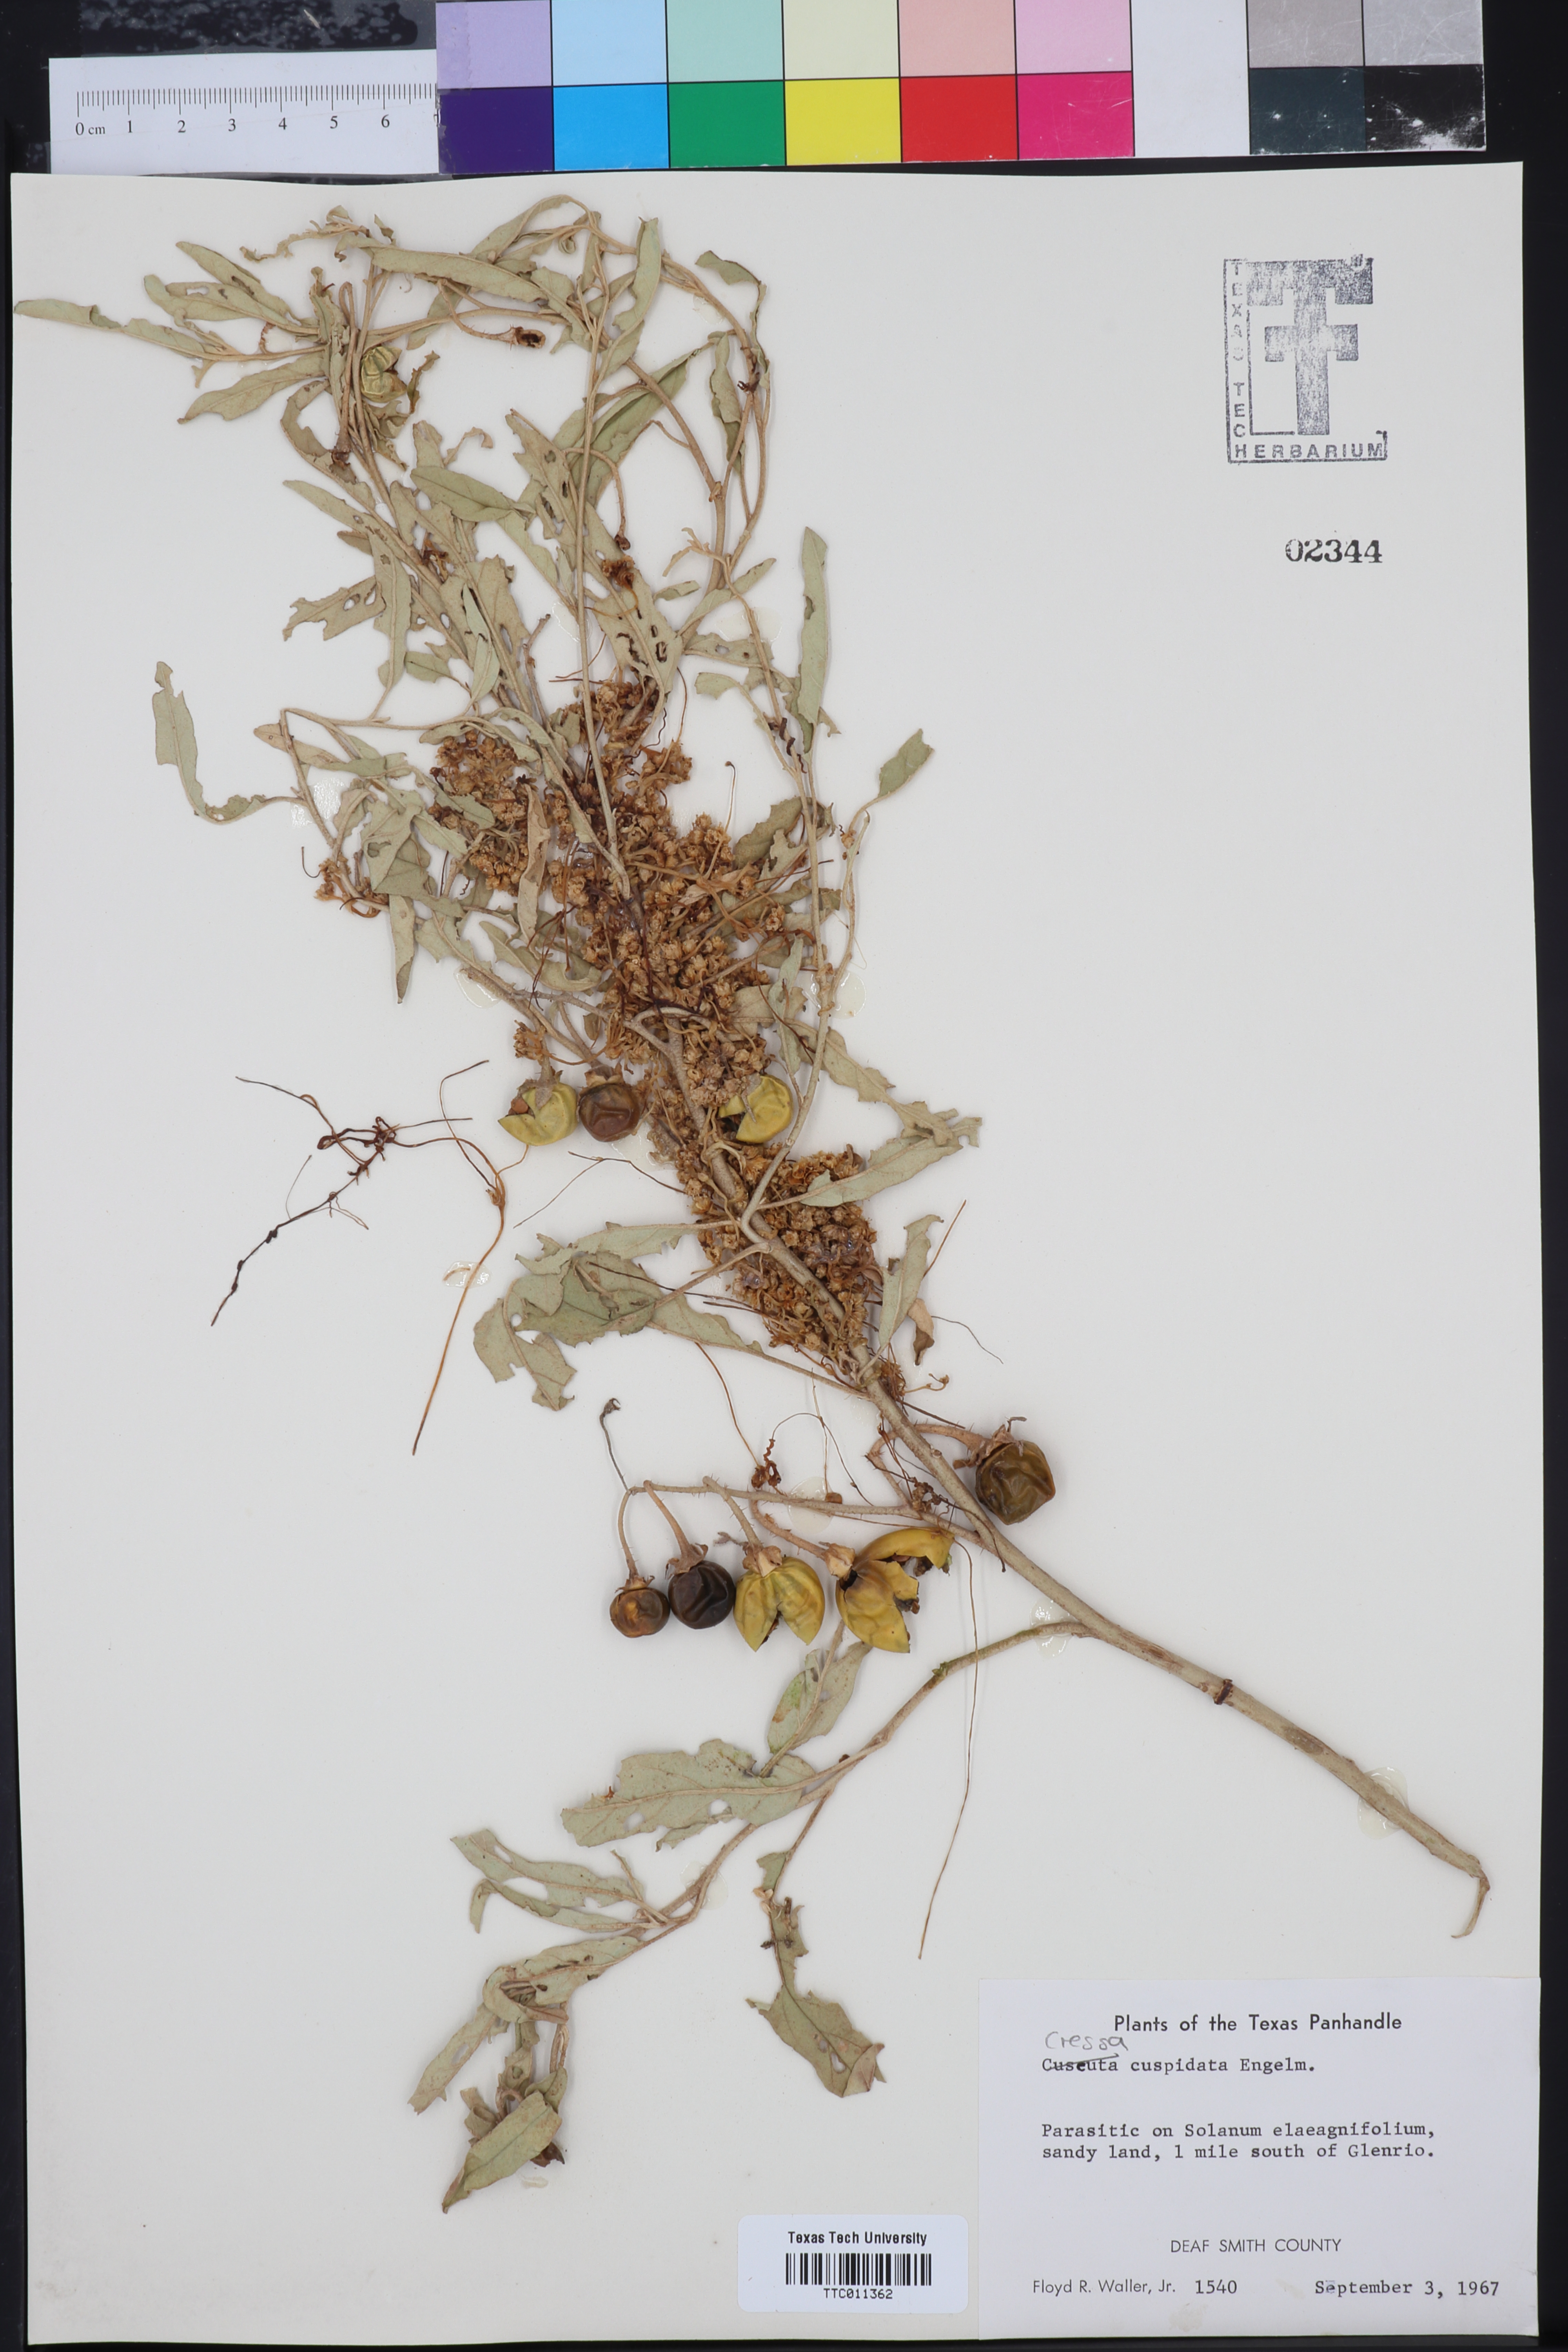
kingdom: Plantae
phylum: Tracheophyta
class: Magnoliopsida
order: Solanales
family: Convolvulaceae
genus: Cressa
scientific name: Cressa
